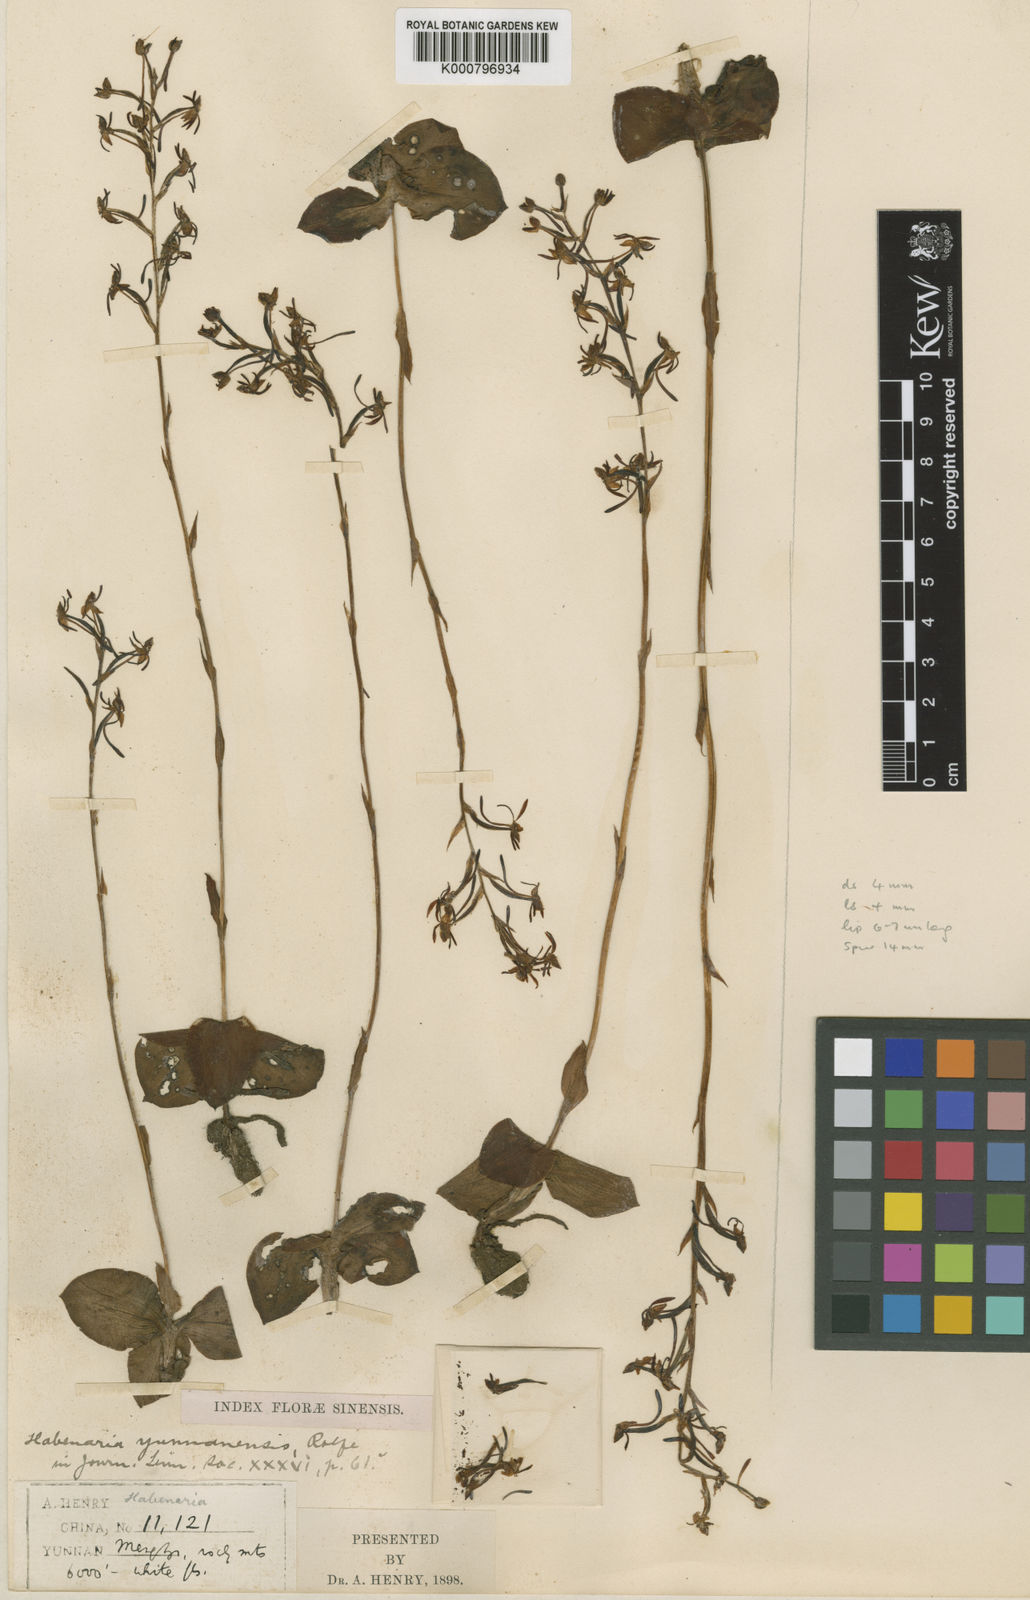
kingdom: Plantae
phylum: Tracheophyta
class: Liliopsida
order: Asparagales
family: Orchidaceae
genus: Habenaria
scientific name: Habenaria delavayi
